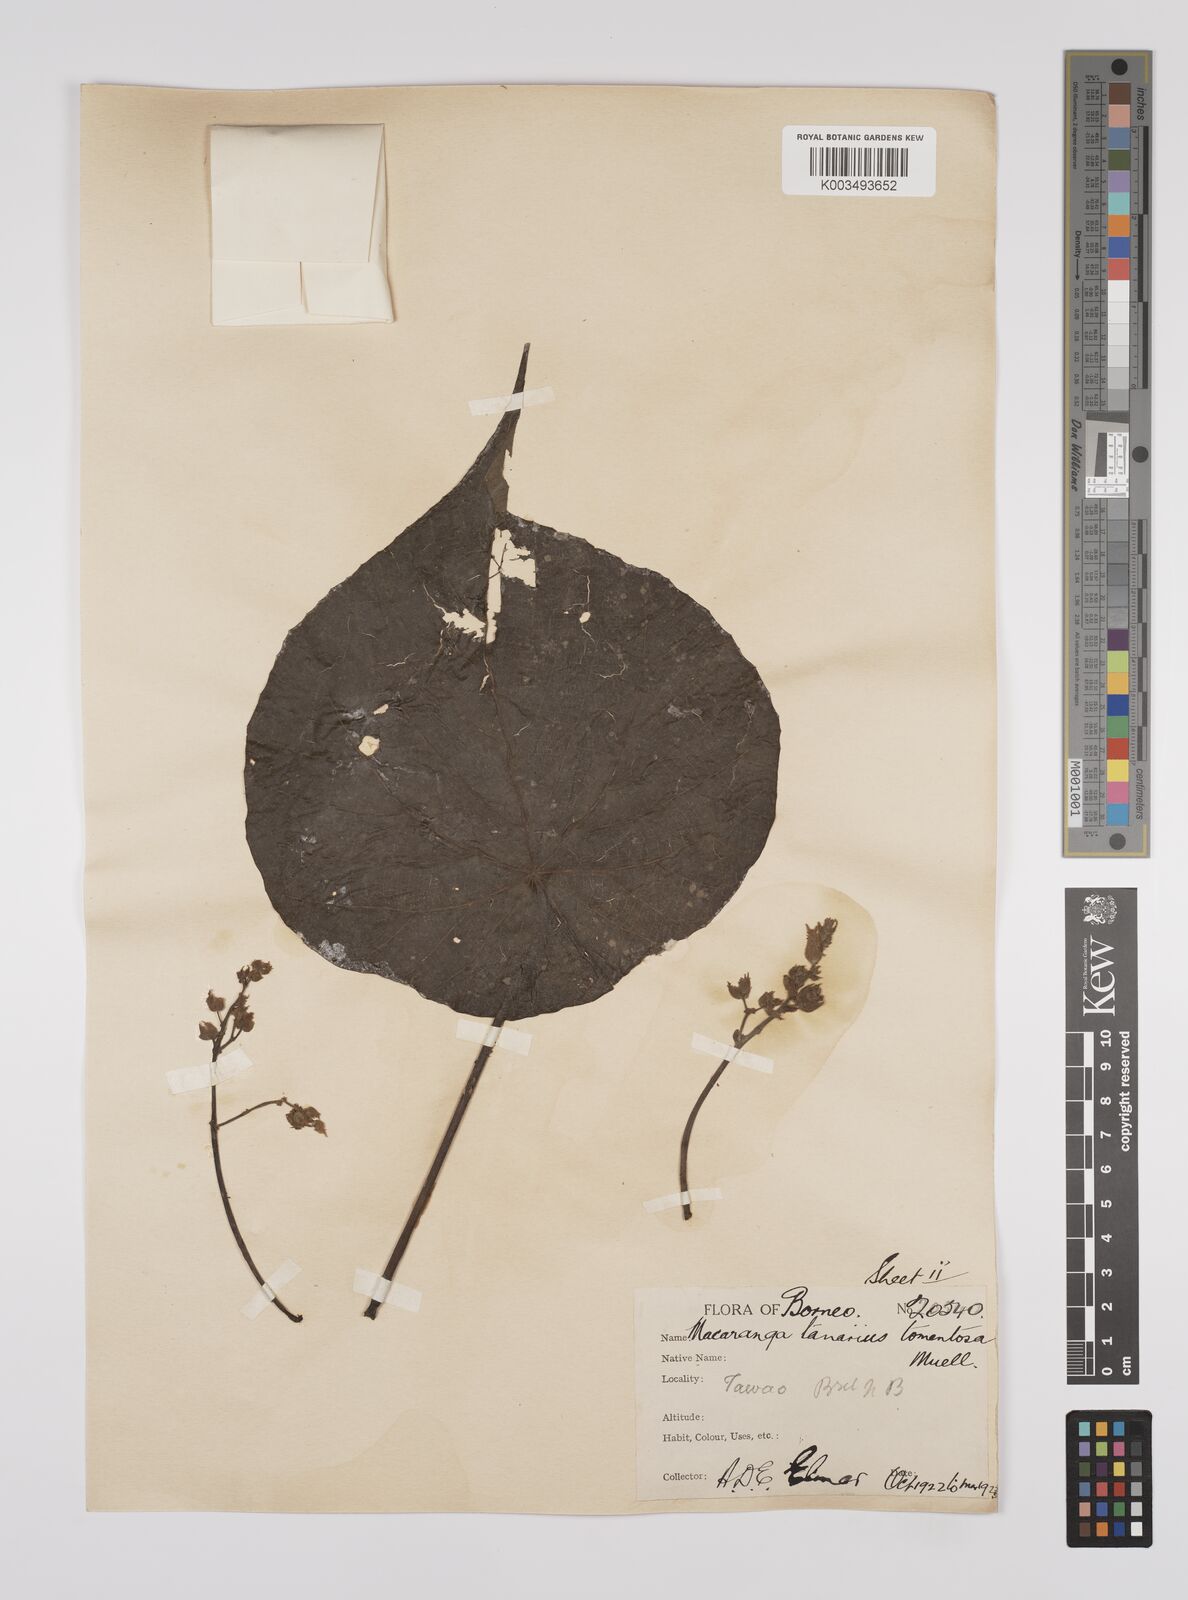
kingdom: Plantae
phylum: Tracheophyta
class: Magnoliopsida
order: Malpighiales
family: Euphorbiaceae
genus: Macaranga
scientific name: Macaranga tanarius
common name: Parasol leaf tree
